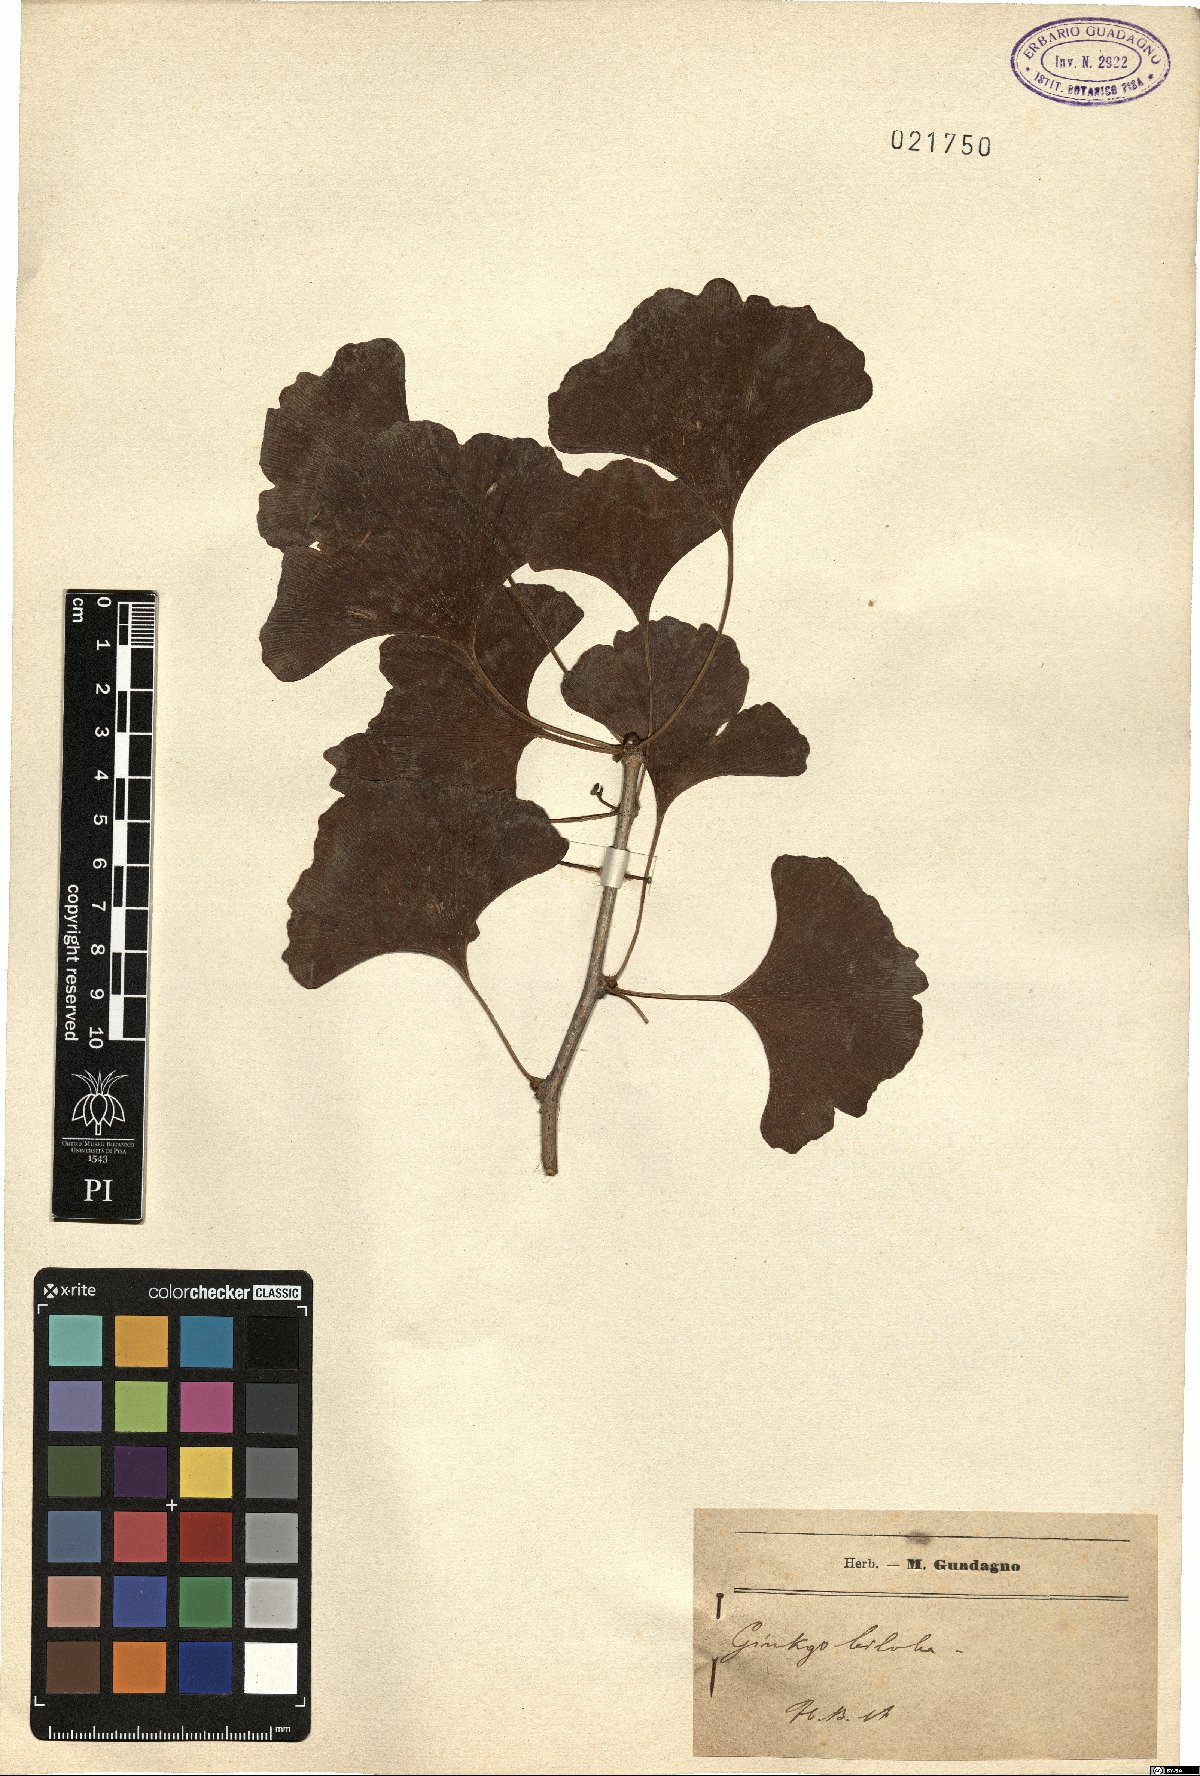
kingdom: Plantae
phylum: Tracheophyta
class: Ginkgoopsida
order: Ginkgoales
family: Ginkgoaceae
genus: Ginkgo
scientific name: Ginkgo biloba
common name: Ginkgo
